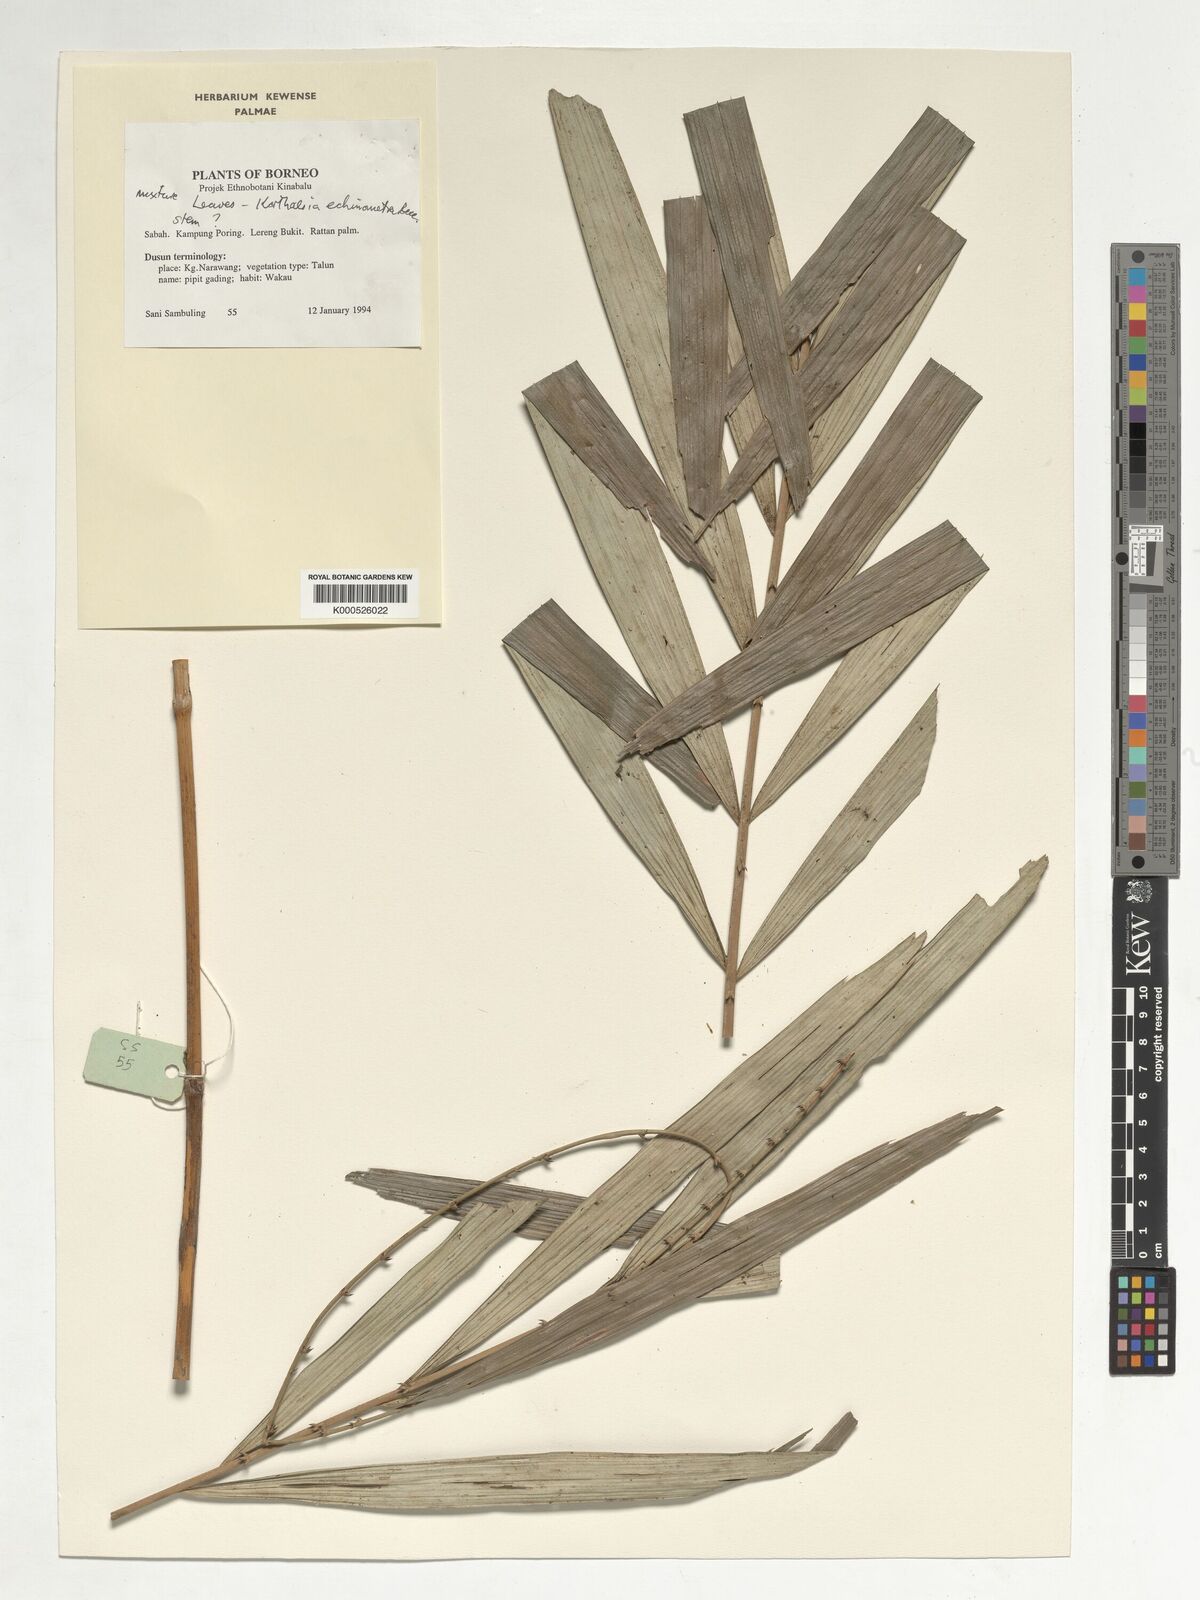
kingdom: Plantae
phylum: Tracheophyta
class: Liliopsida
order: Arecales
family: Arecaceae
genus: Korthalsia
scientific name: Korthalsia echinometra
